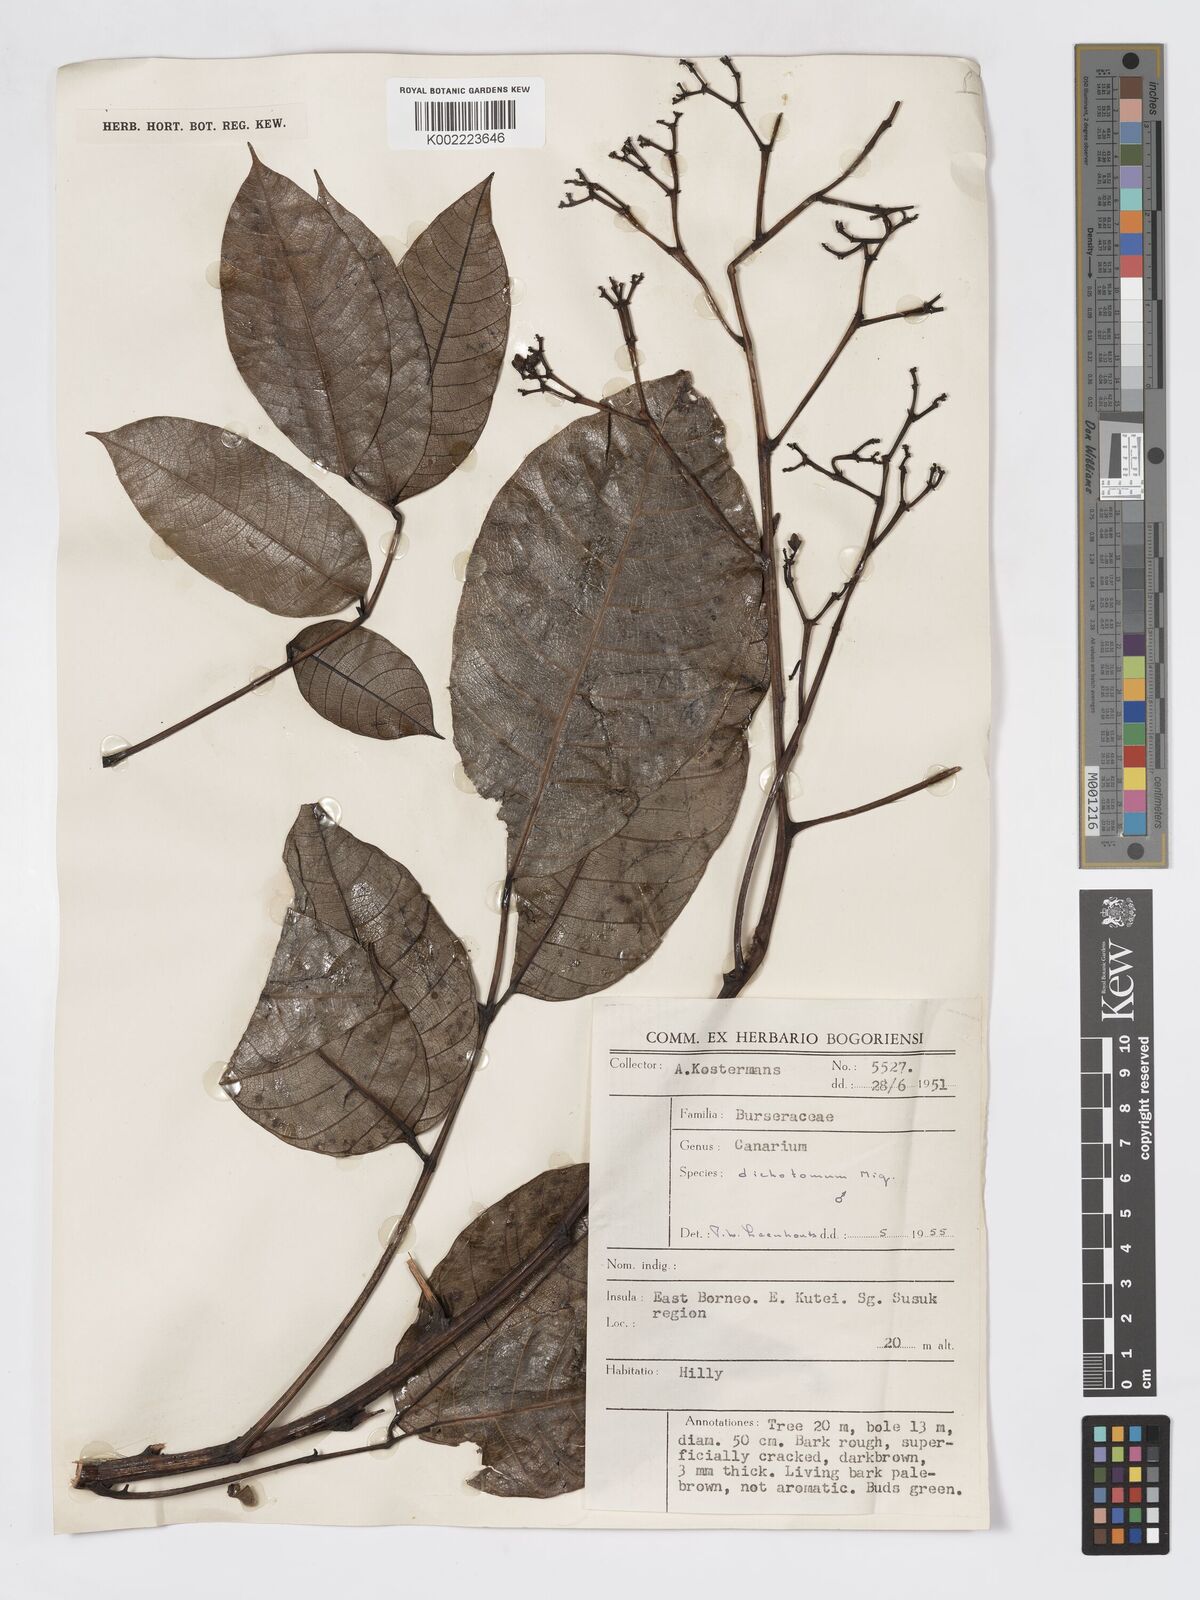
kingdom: Plantae
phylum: Tracheophyta
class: Magnoliopsida
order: Sapindales
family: Burseraceae
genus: Canarium
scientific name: Canarium dichotomum
